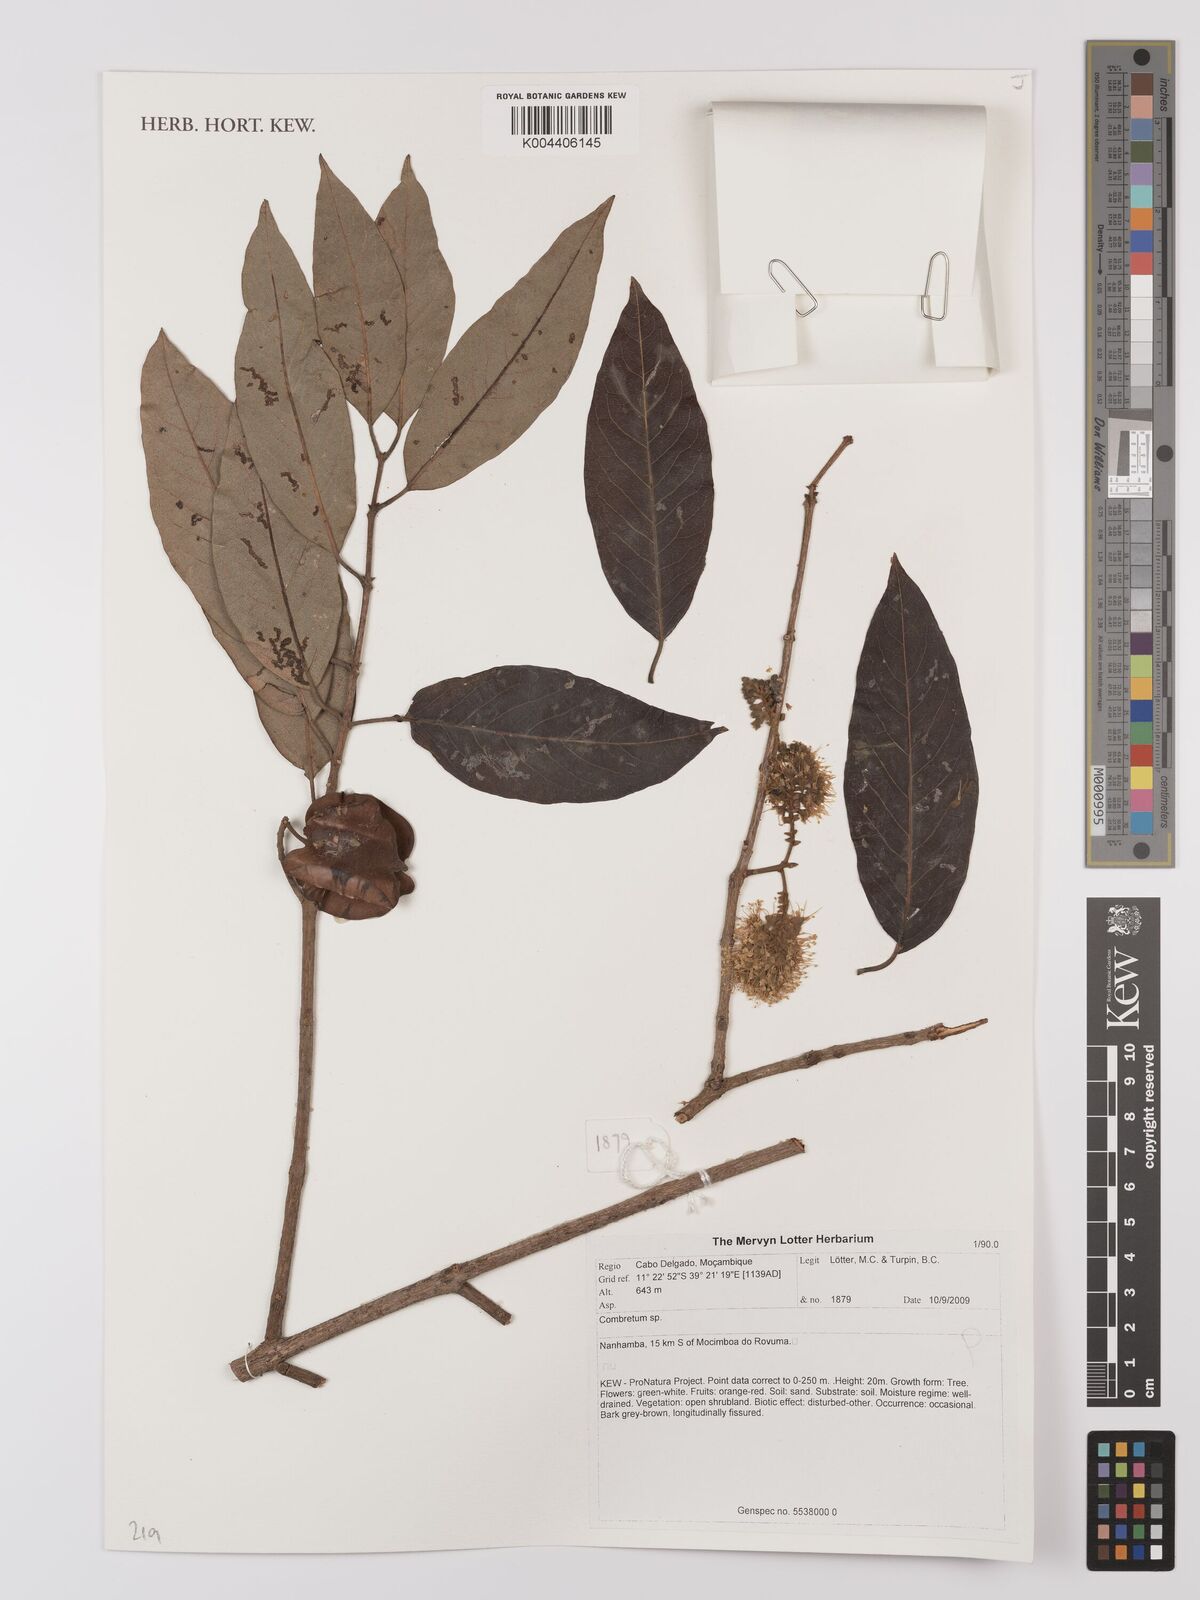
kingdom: Plantae
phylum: Tracheophyta
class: Magnoliopsida
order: Myrtales
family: Combretaceae
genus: Combretum
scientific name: Combretum
